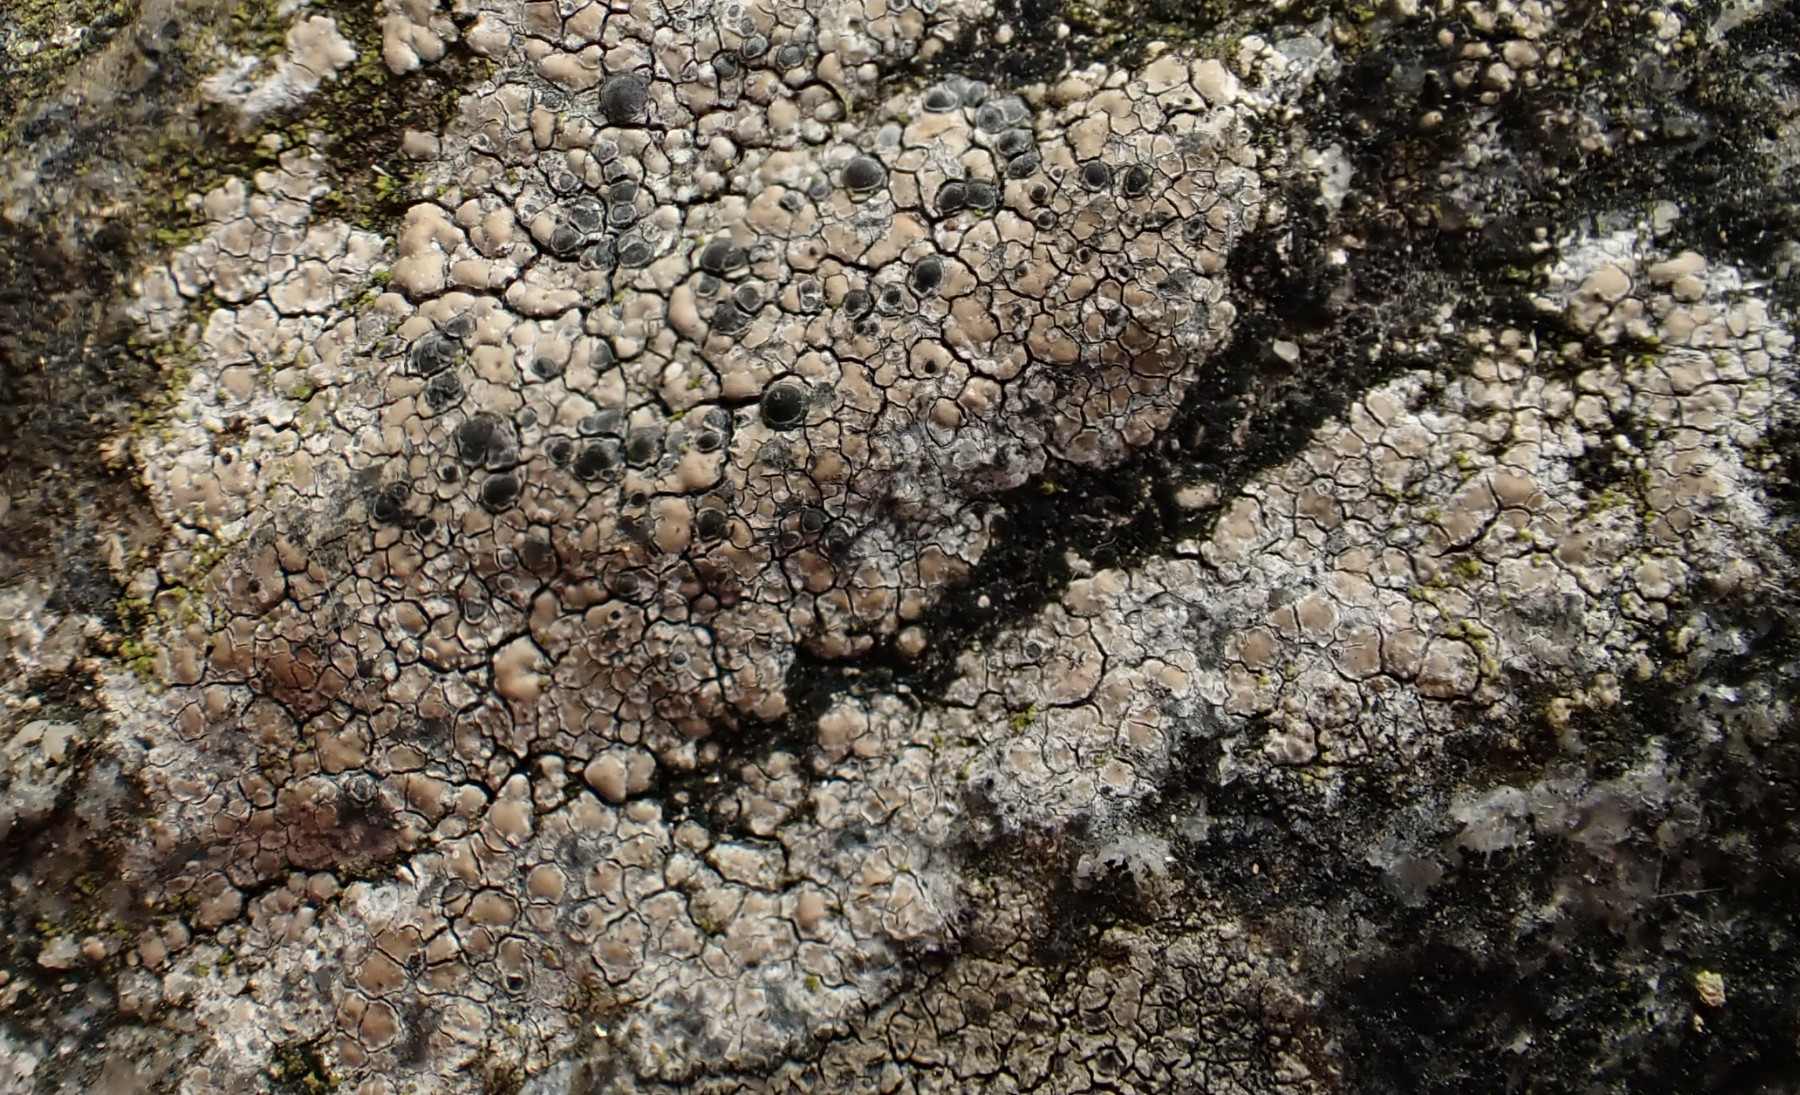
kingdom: Fungi
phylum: Ascomycota
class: Lecanoromycetes
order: Lecideales
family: Lecideaceae
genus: Lecidea
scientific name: Lecidea fuscoatra
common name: rudret skivelav
